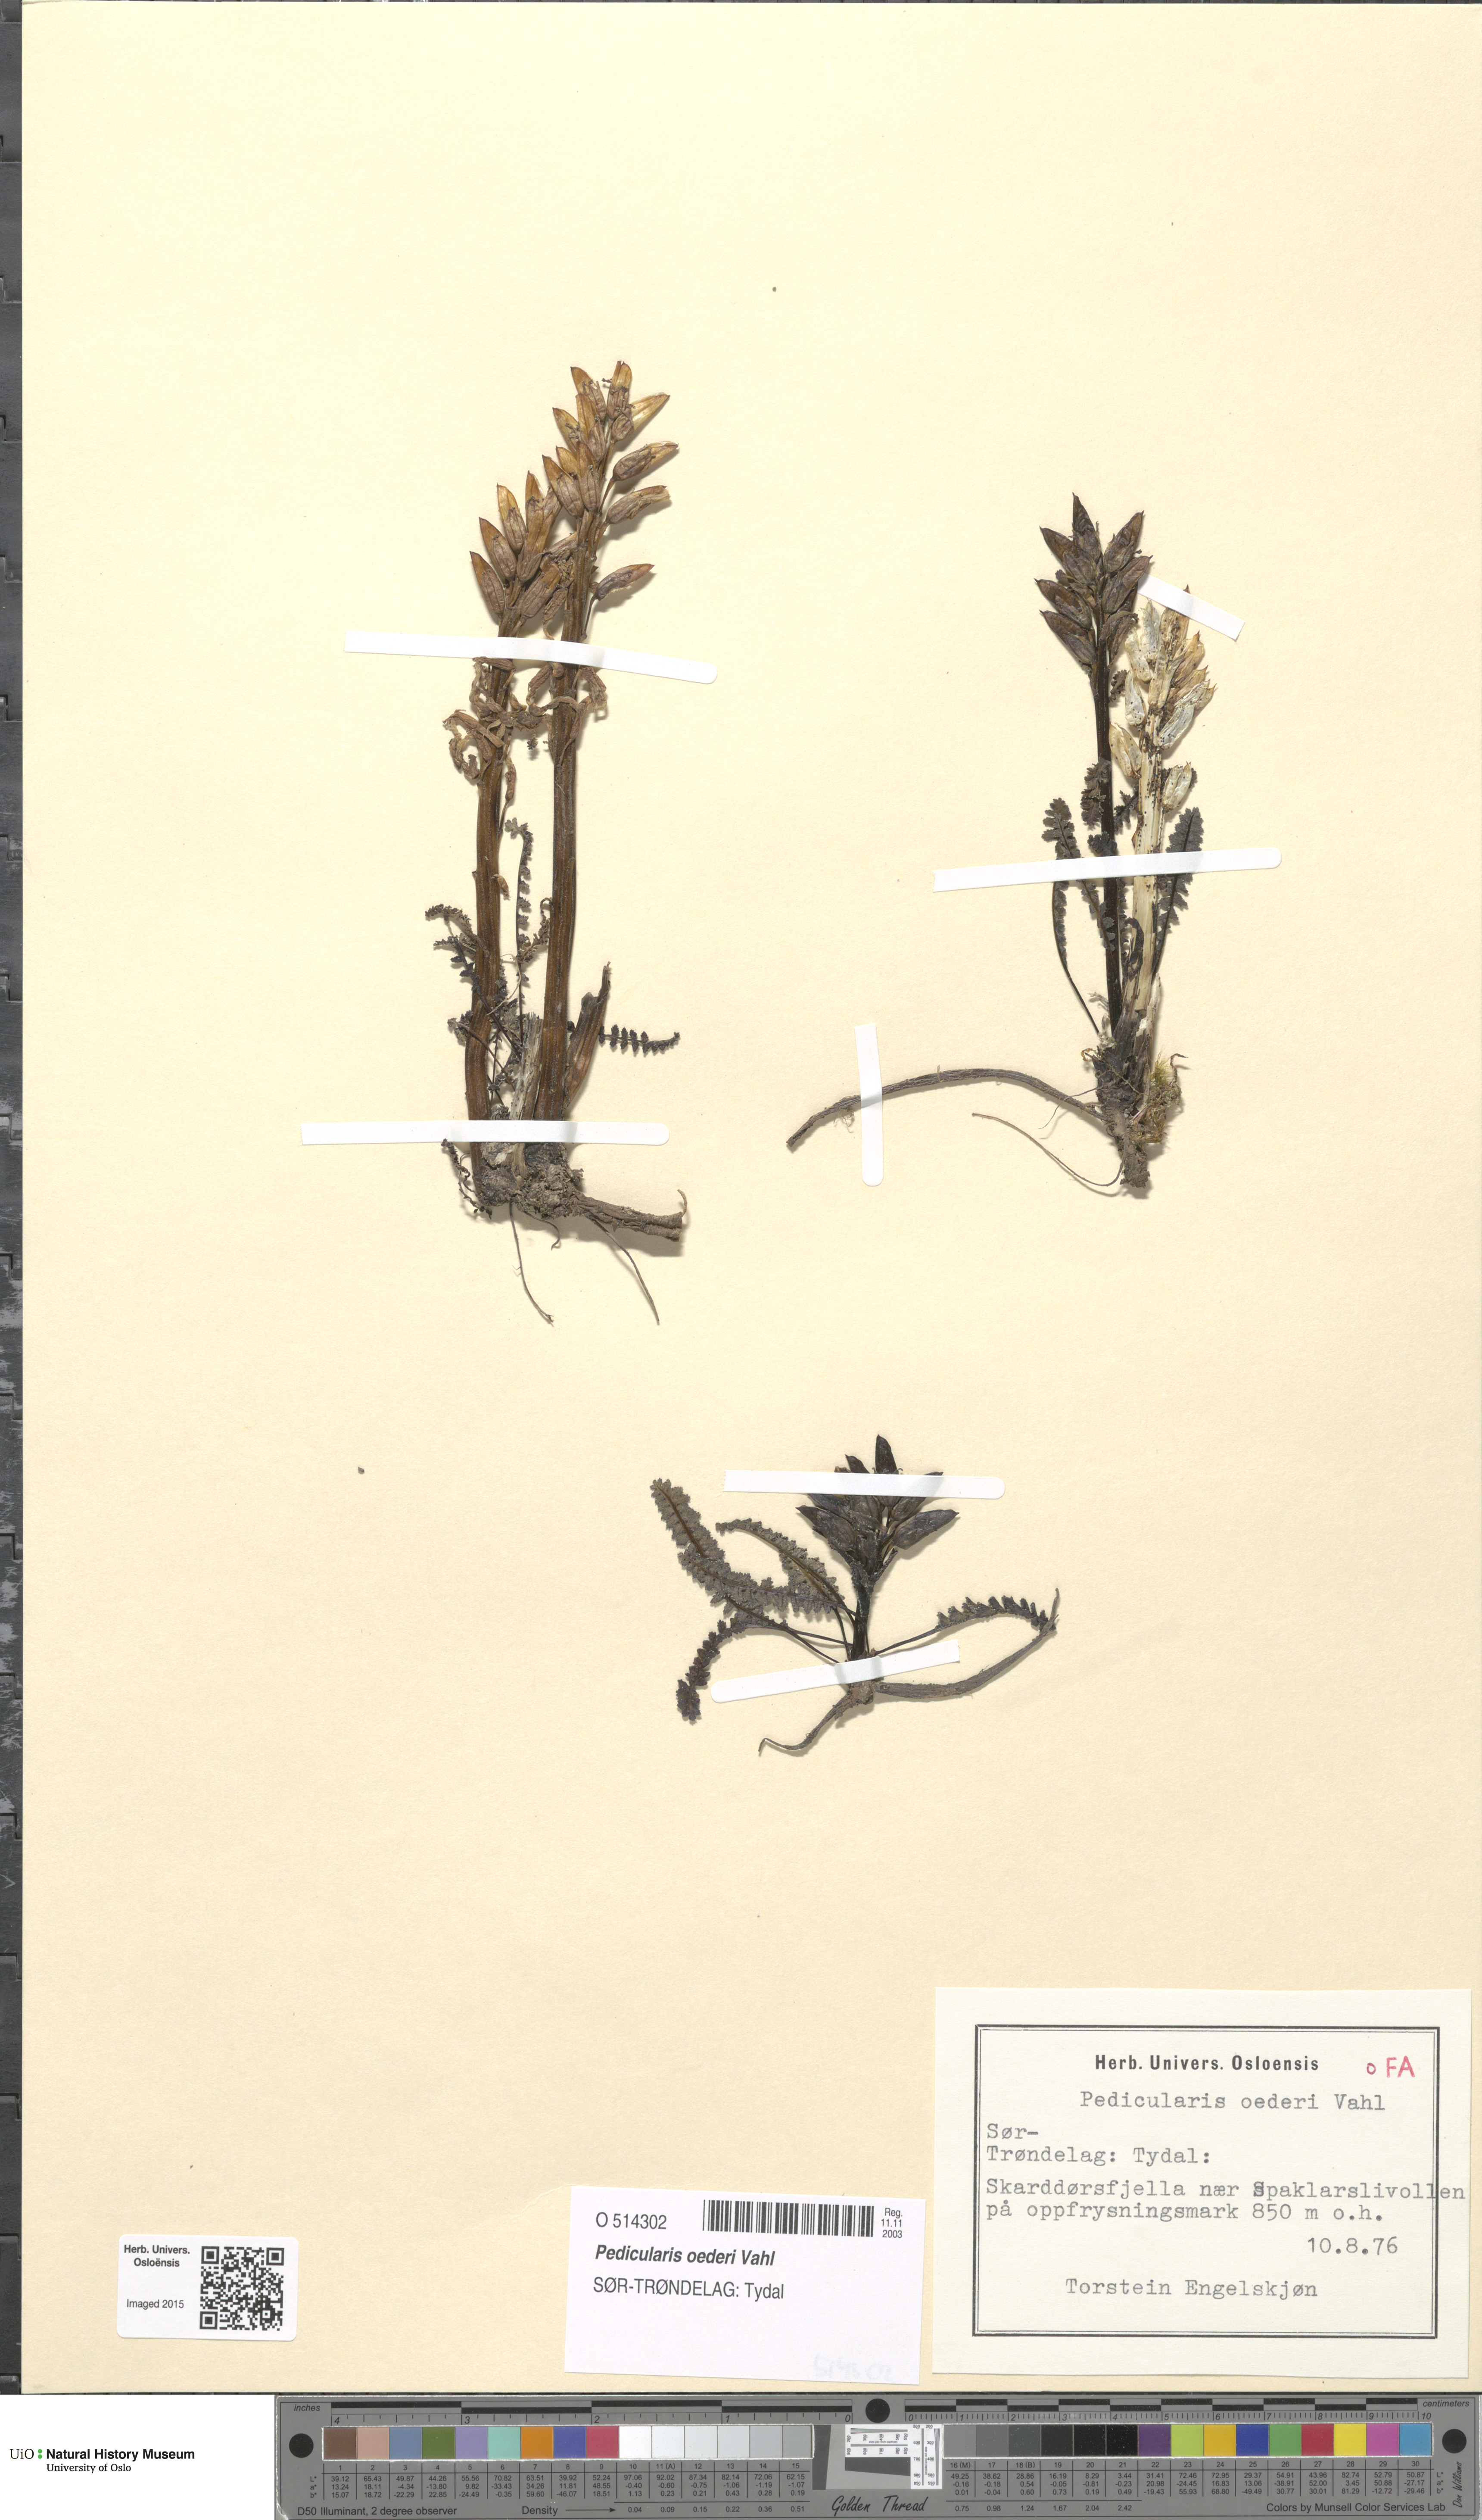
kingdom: Plantae
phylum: Tracheophyta
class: Magnoliopsida
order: Lamiales
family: Orobanchaceae
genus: Pedicularis
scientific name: Pedicularis oederi
